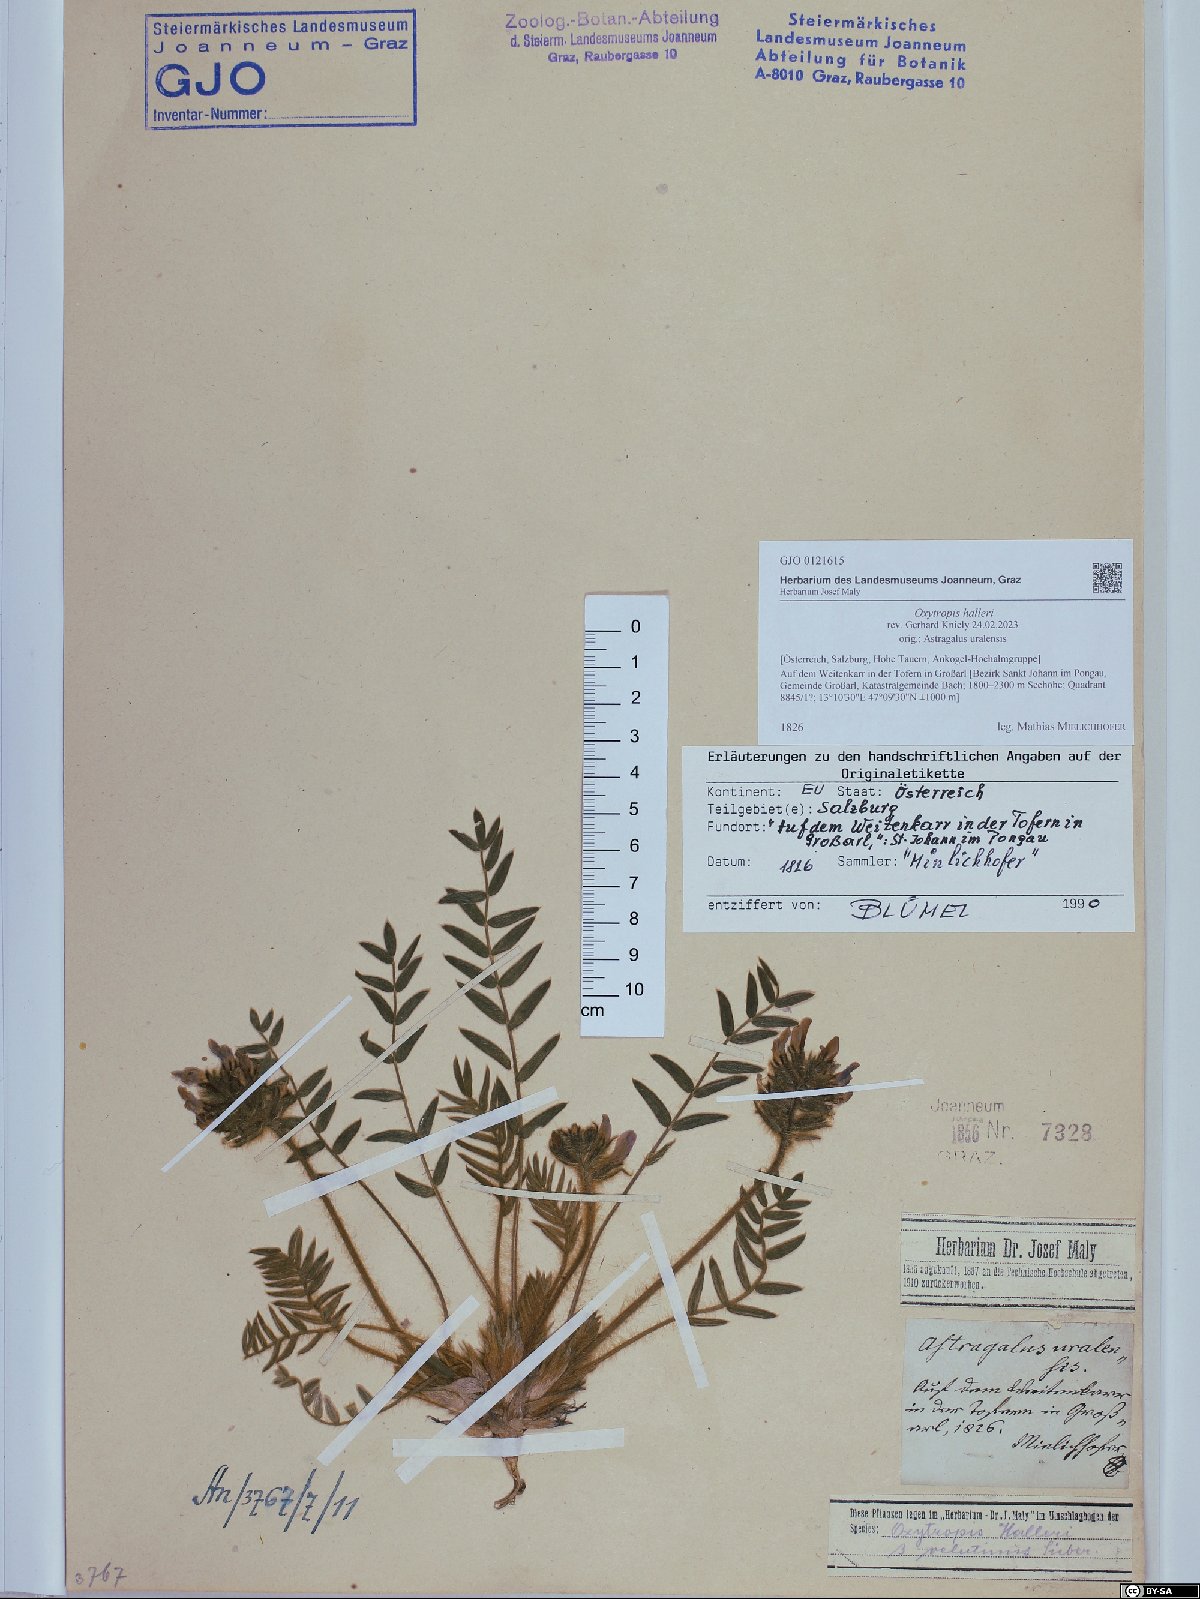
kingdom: Plantae
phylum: Tracheophyta
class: Magnoliopsida
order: Fabales
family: Fabaceae
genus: Oxytropis
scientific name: Oxytropis halleri
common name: Purple oxytropis
